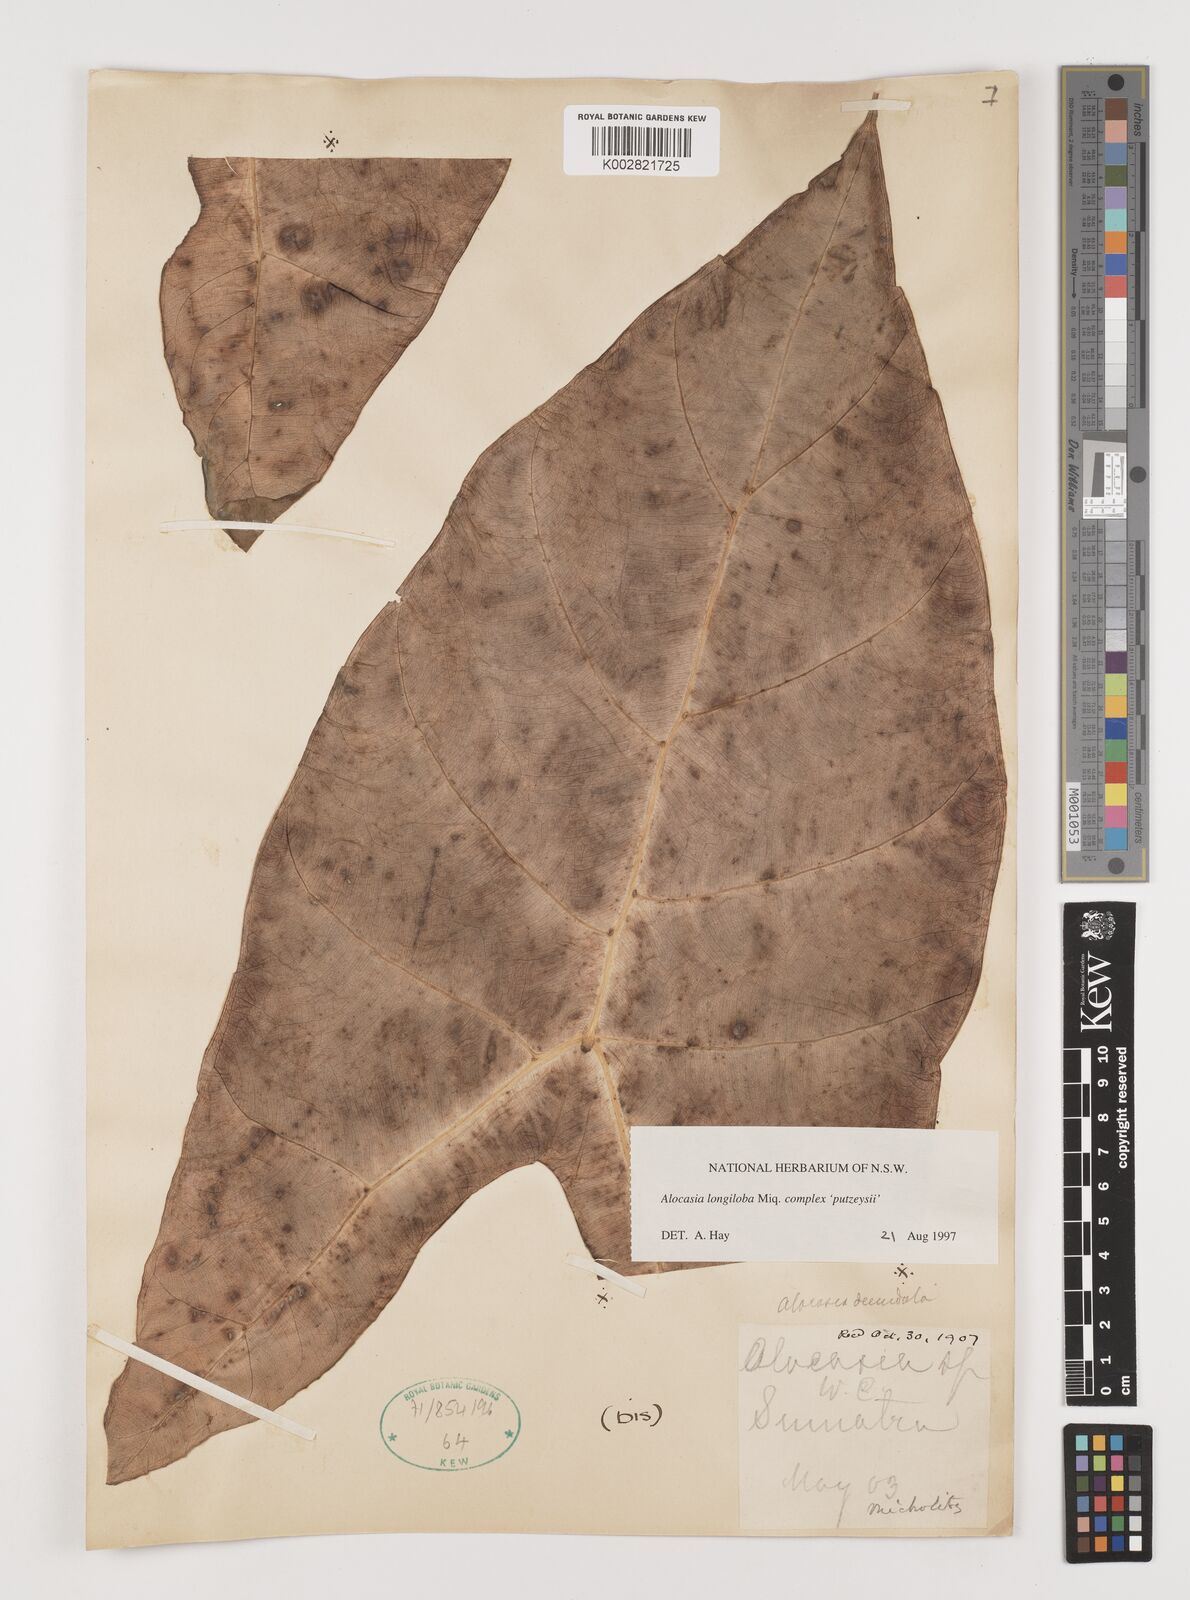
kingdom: Plantae
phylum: Tracheophyta
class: Liliopsida
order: Alismatales
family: Araceae
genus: Alocasia
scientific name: Alocasia longiloba
